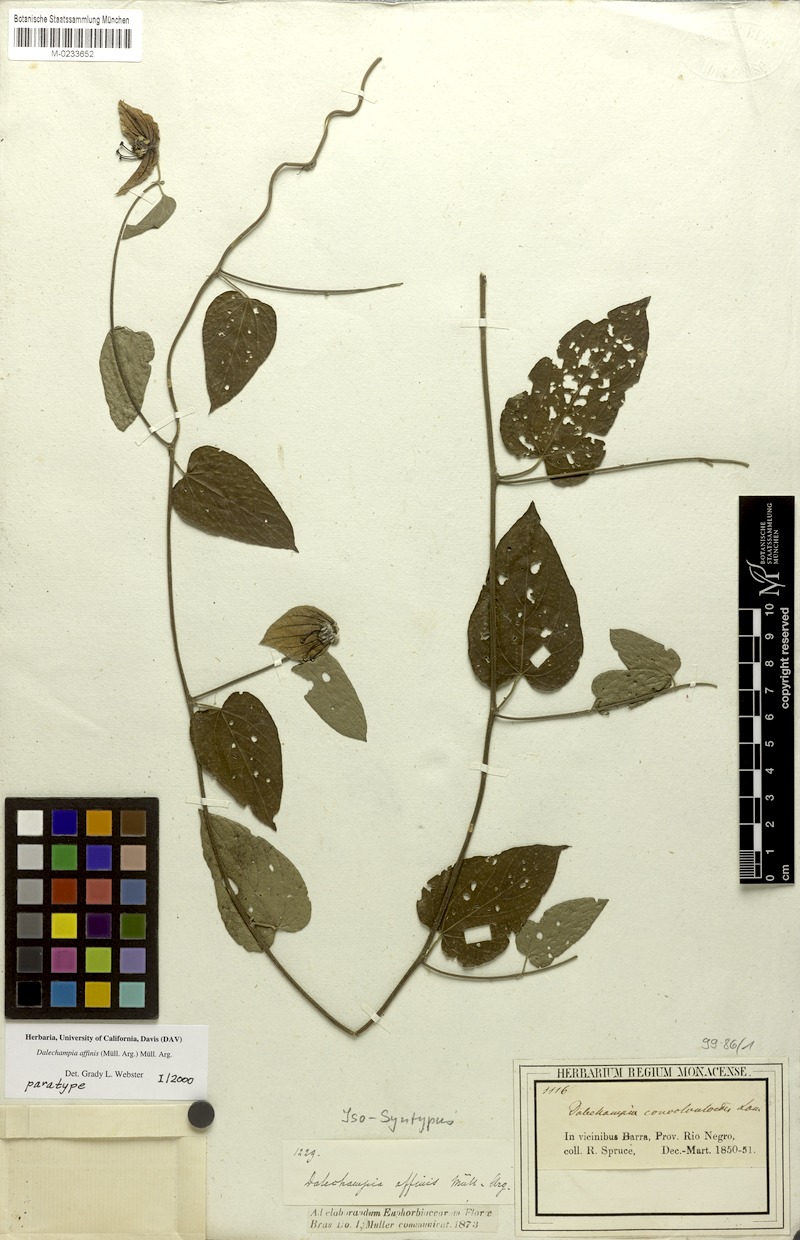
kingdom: Plantae
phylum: Tracheophyta
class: Magnoliopsida
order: Malpighiales
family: Euphorbiaceae
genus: Dalechampia
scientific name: Dalechampia affinis
